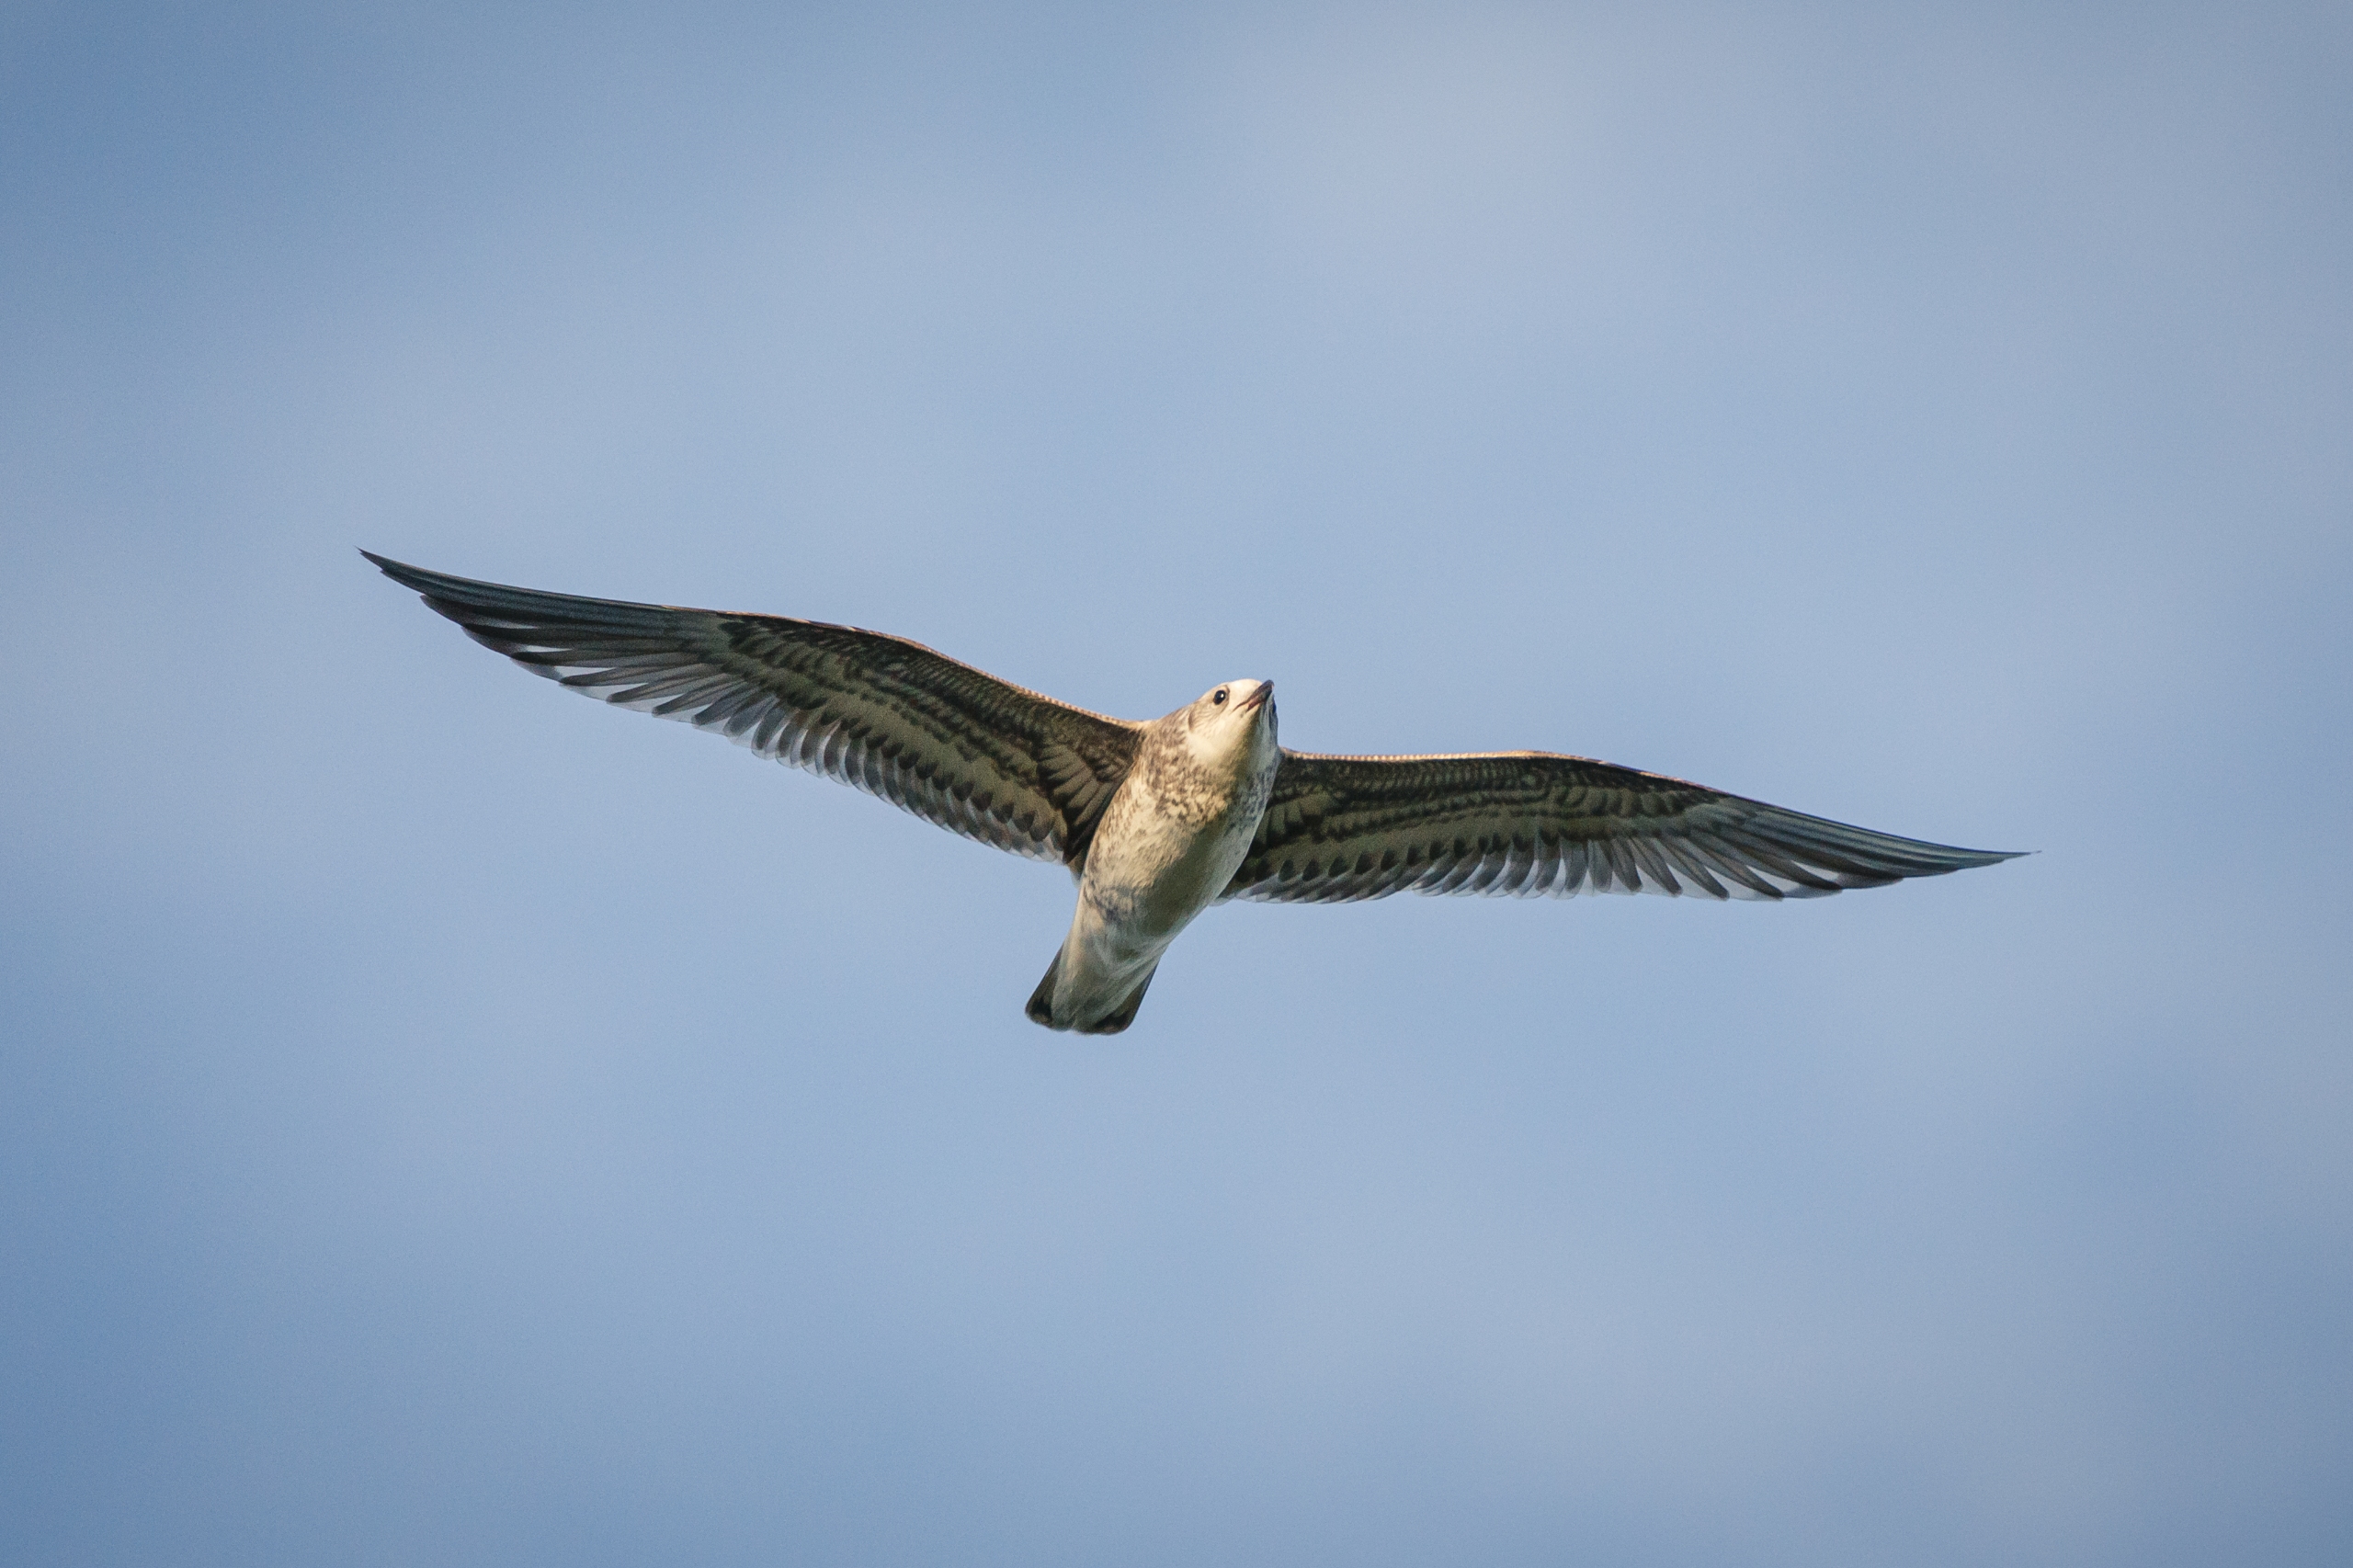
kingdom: Animalia
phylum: Chordata
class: Aves
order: Charadriiformes
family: Laridae
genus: Larus
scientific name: Larus canus
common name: Stormmåge
